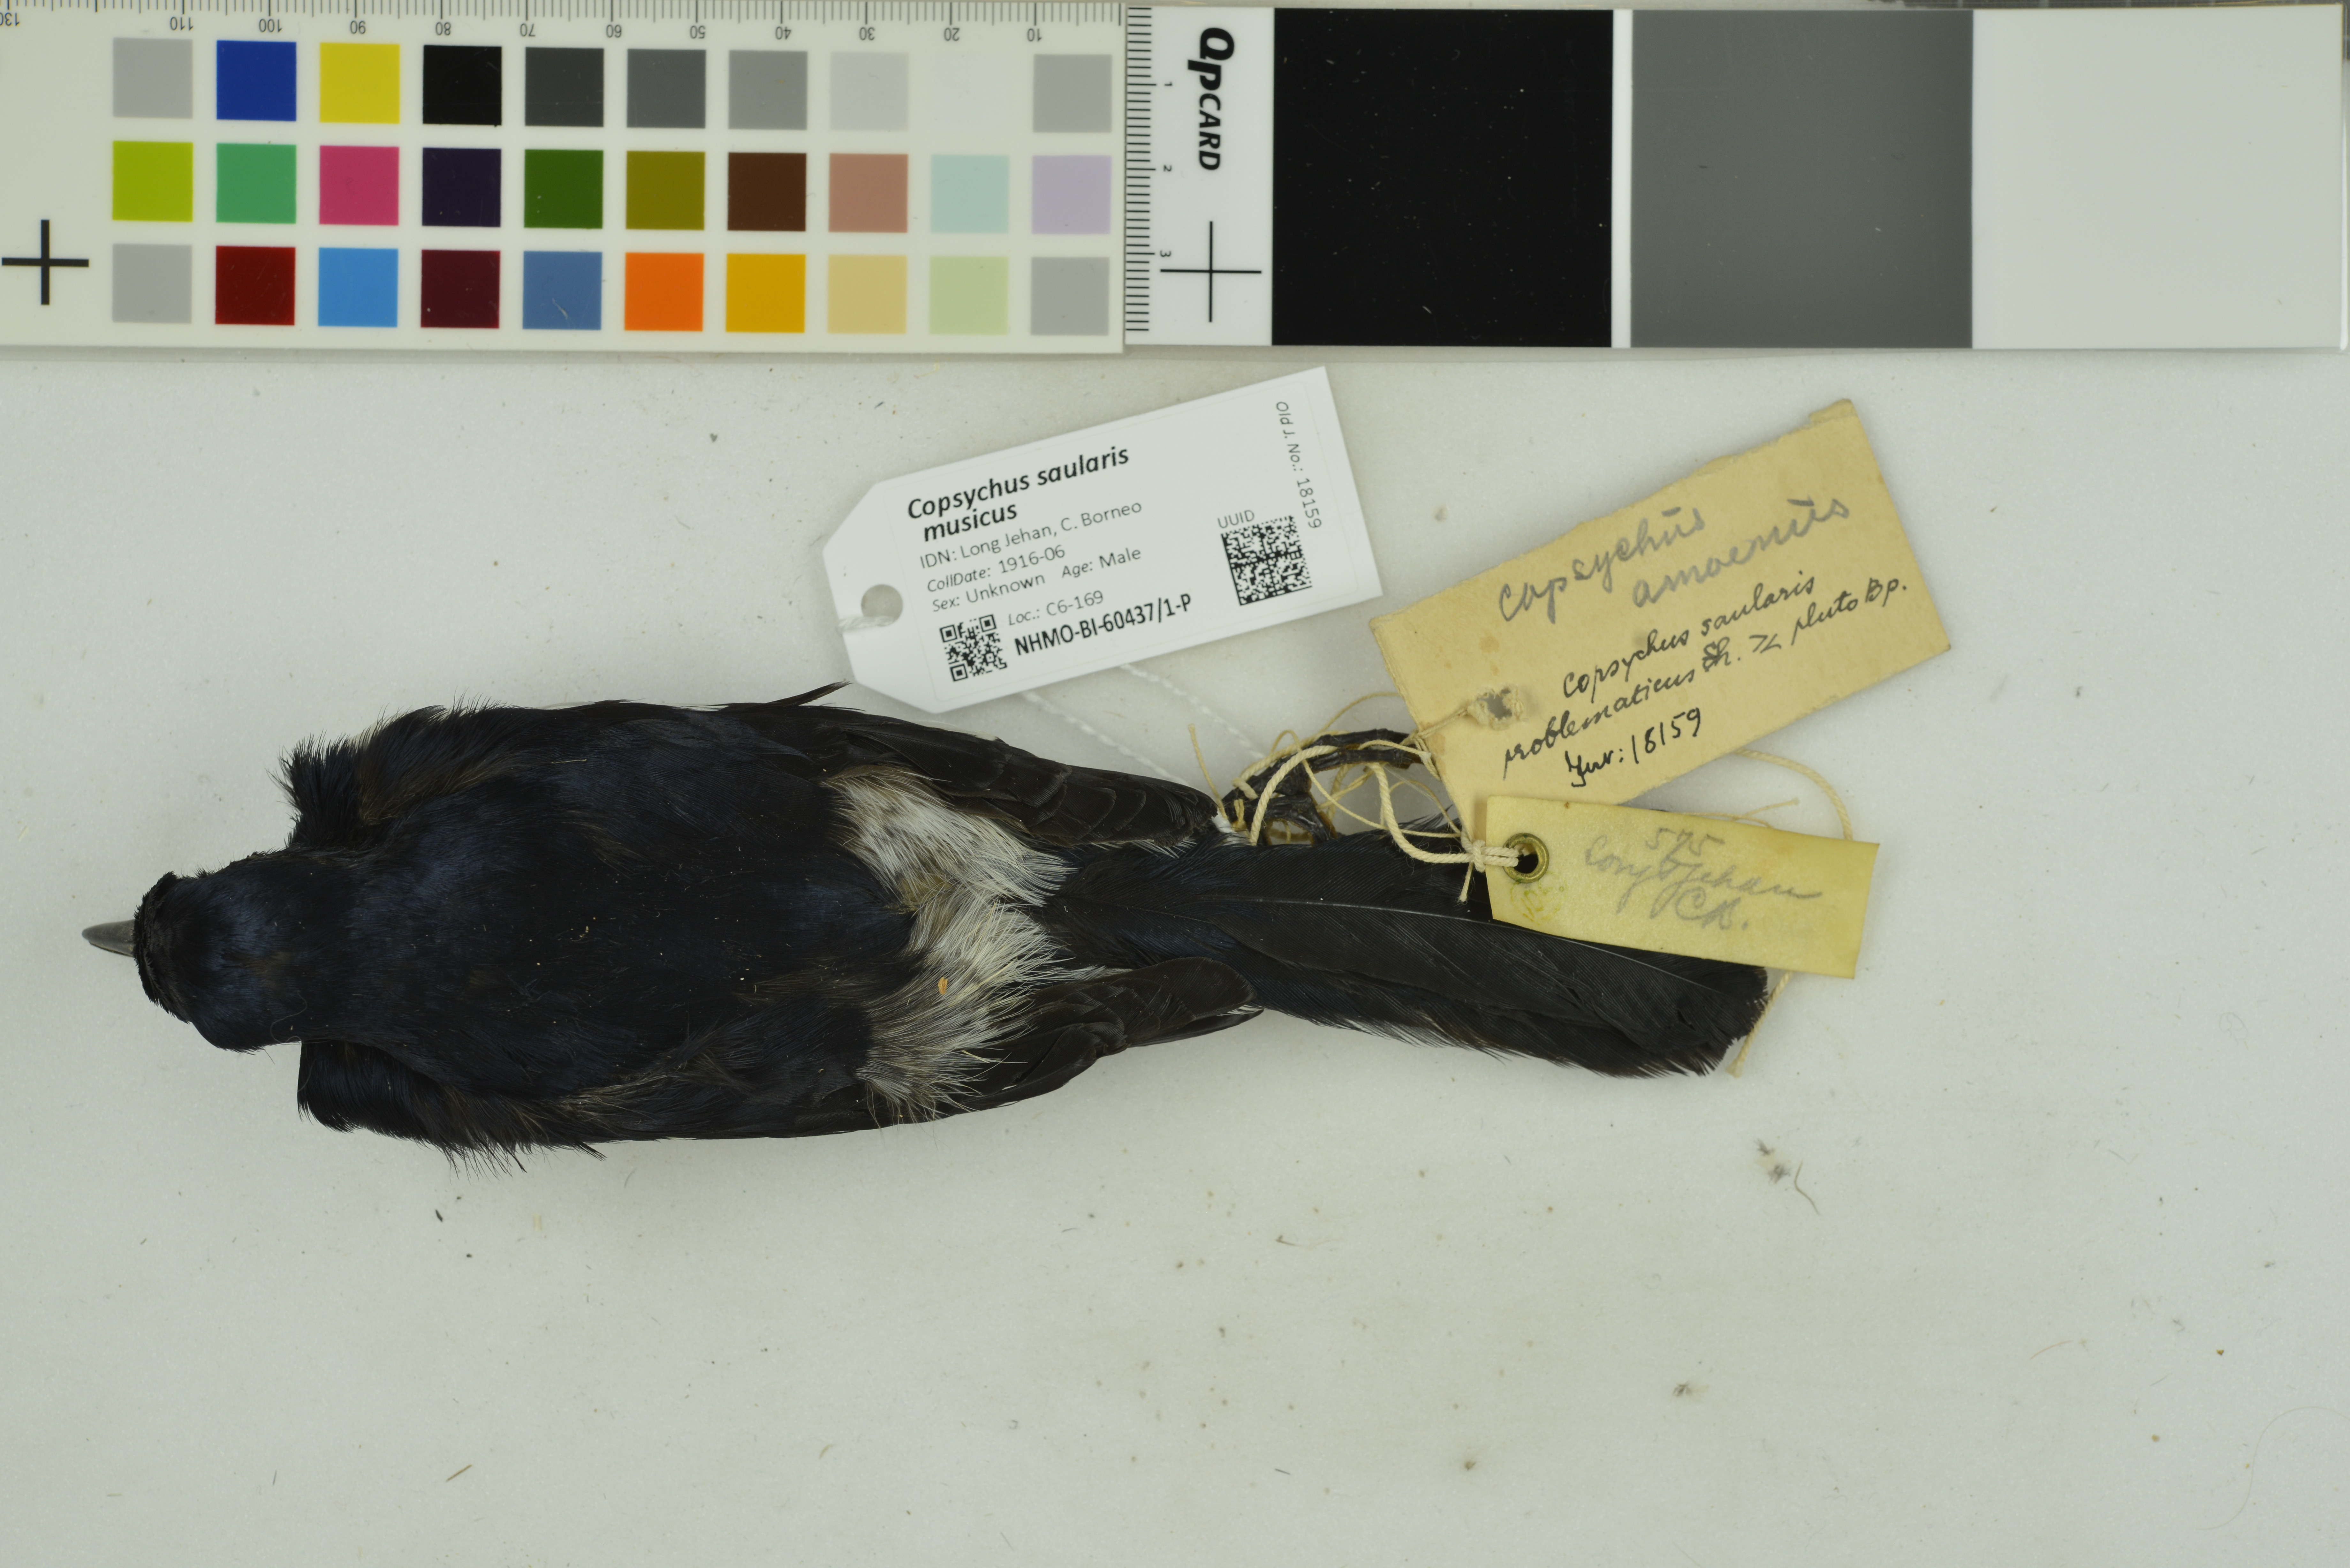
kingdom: Animalia
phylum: Chordata
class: Aves
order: Passeriformes
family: Muscicapidae
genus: Copsychus
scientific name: Copsychus saularis
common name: Oriental magpie-robin
